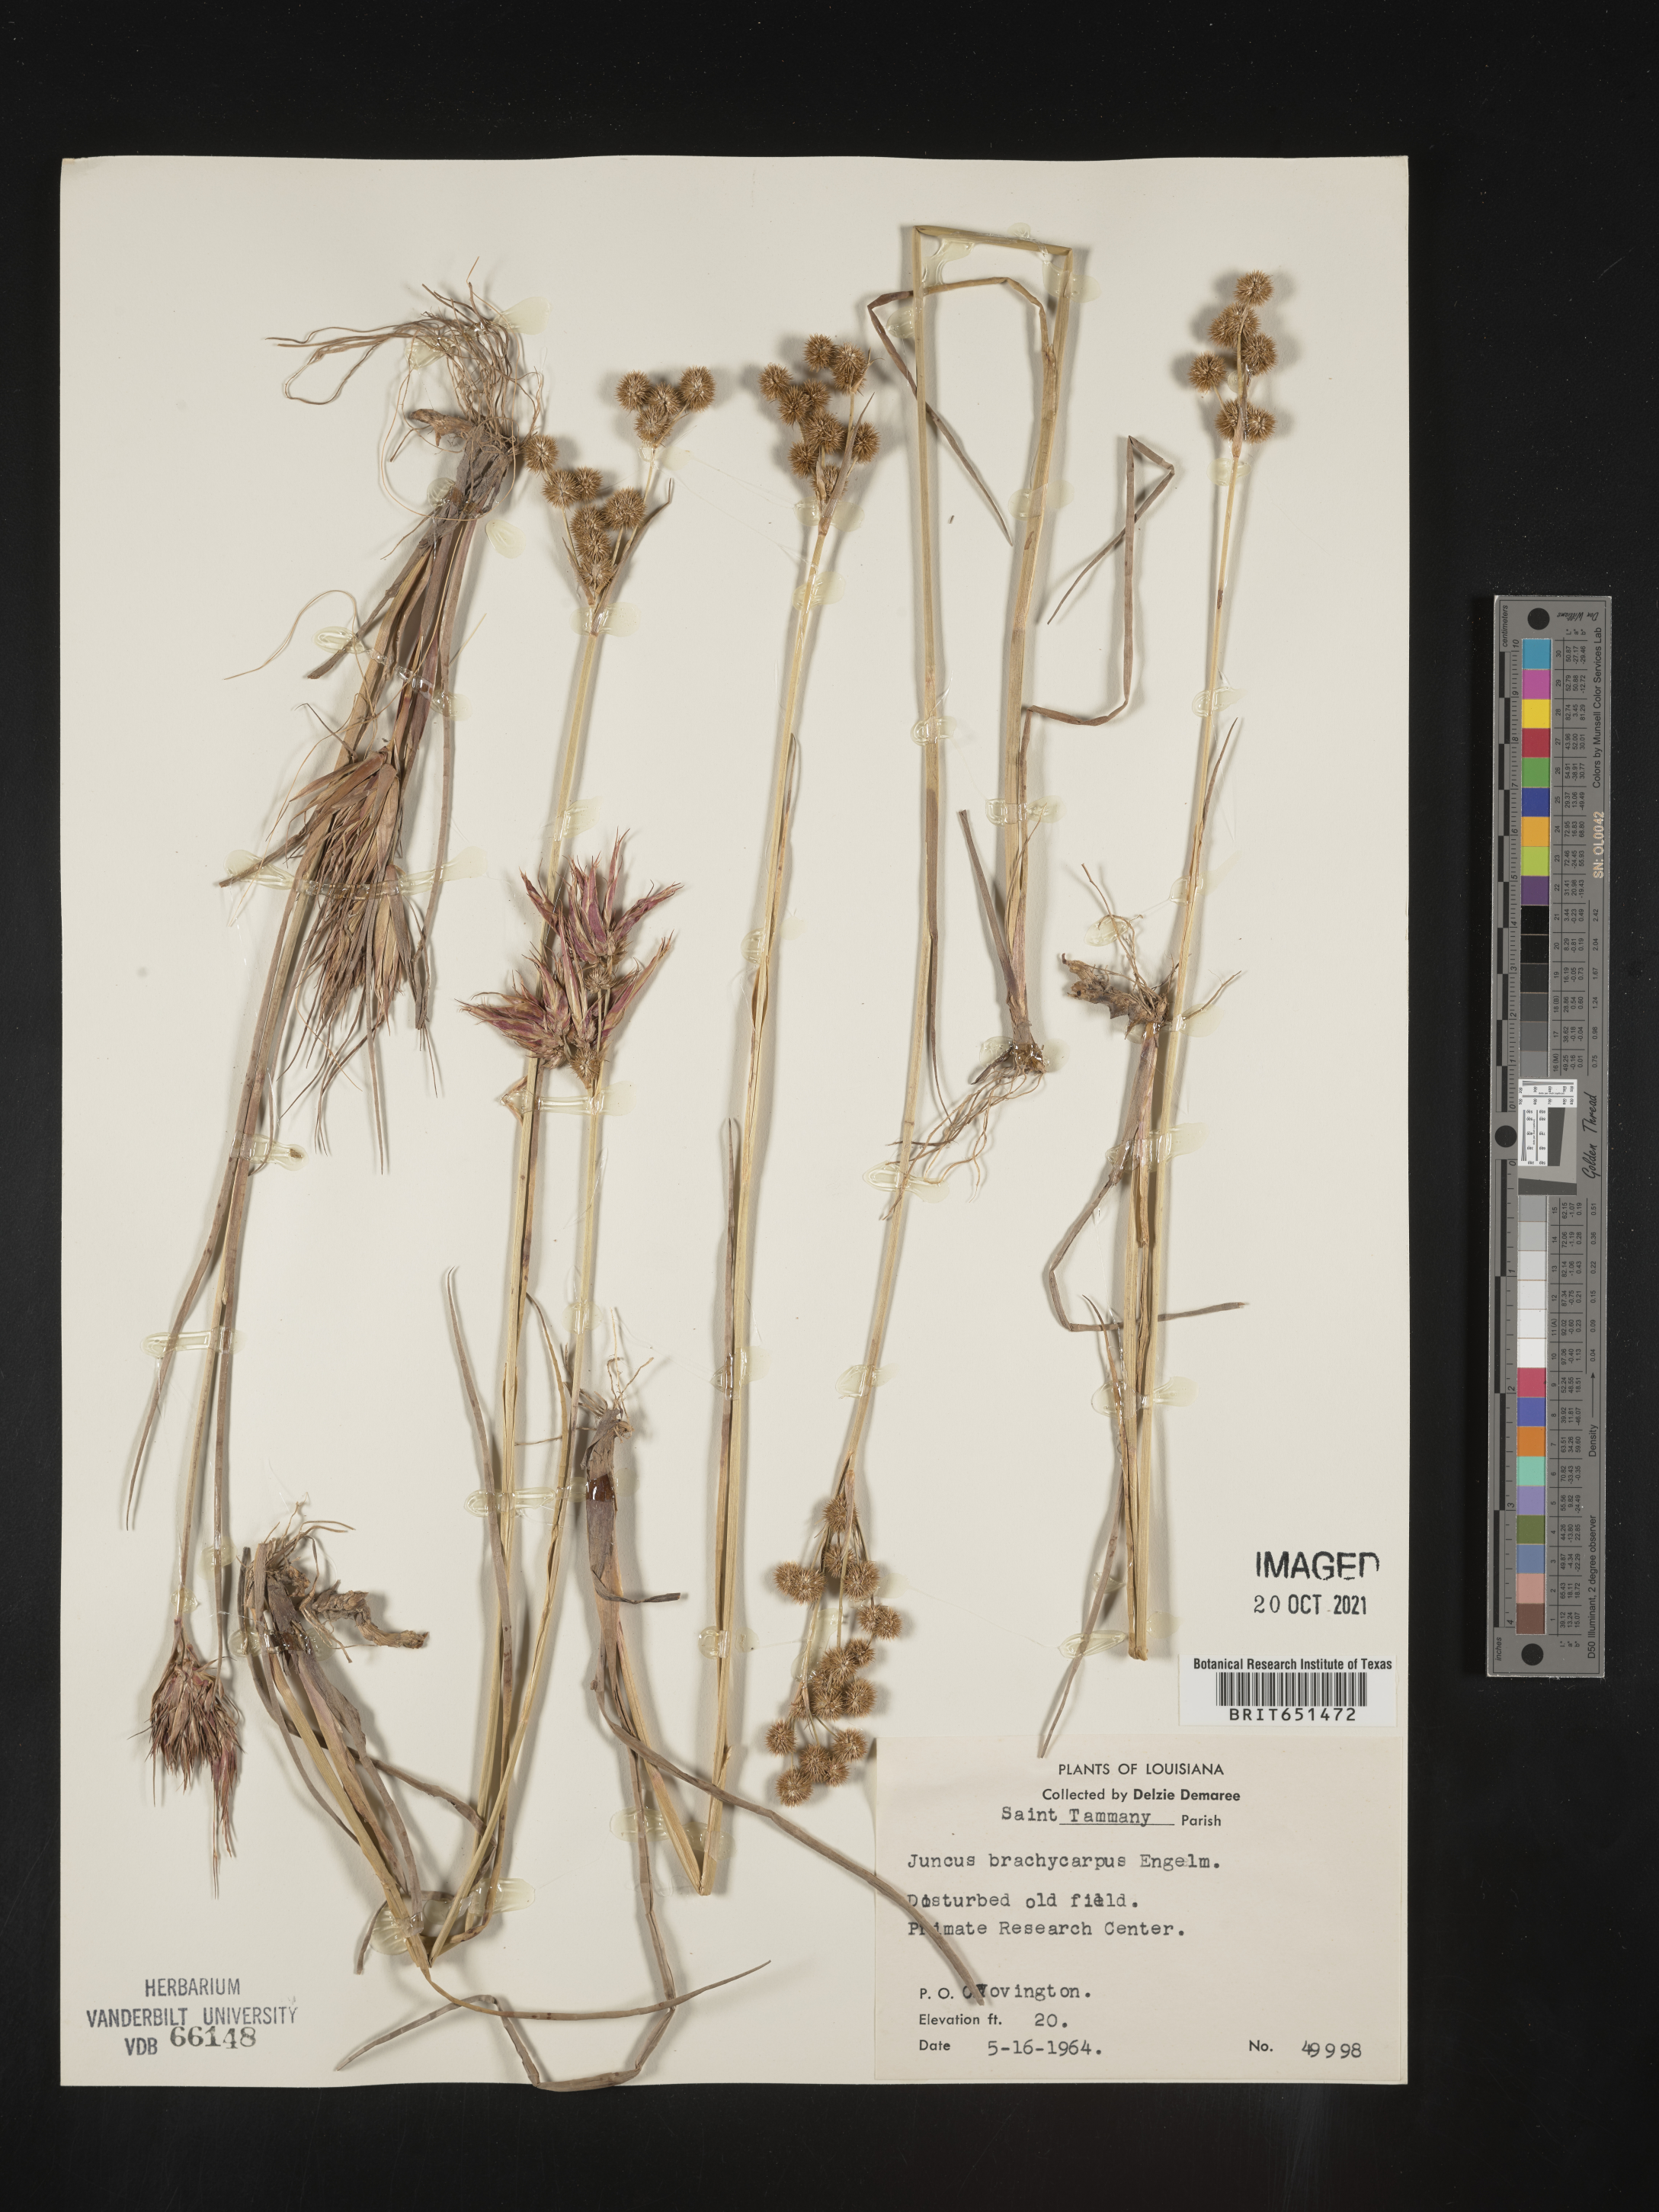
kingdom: Plantae
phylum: Tracheophyta
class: Liliopsida
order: Poales
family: Juncaceae
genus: Juncus
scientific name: Juncus brachycarpus
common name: Shore rush
